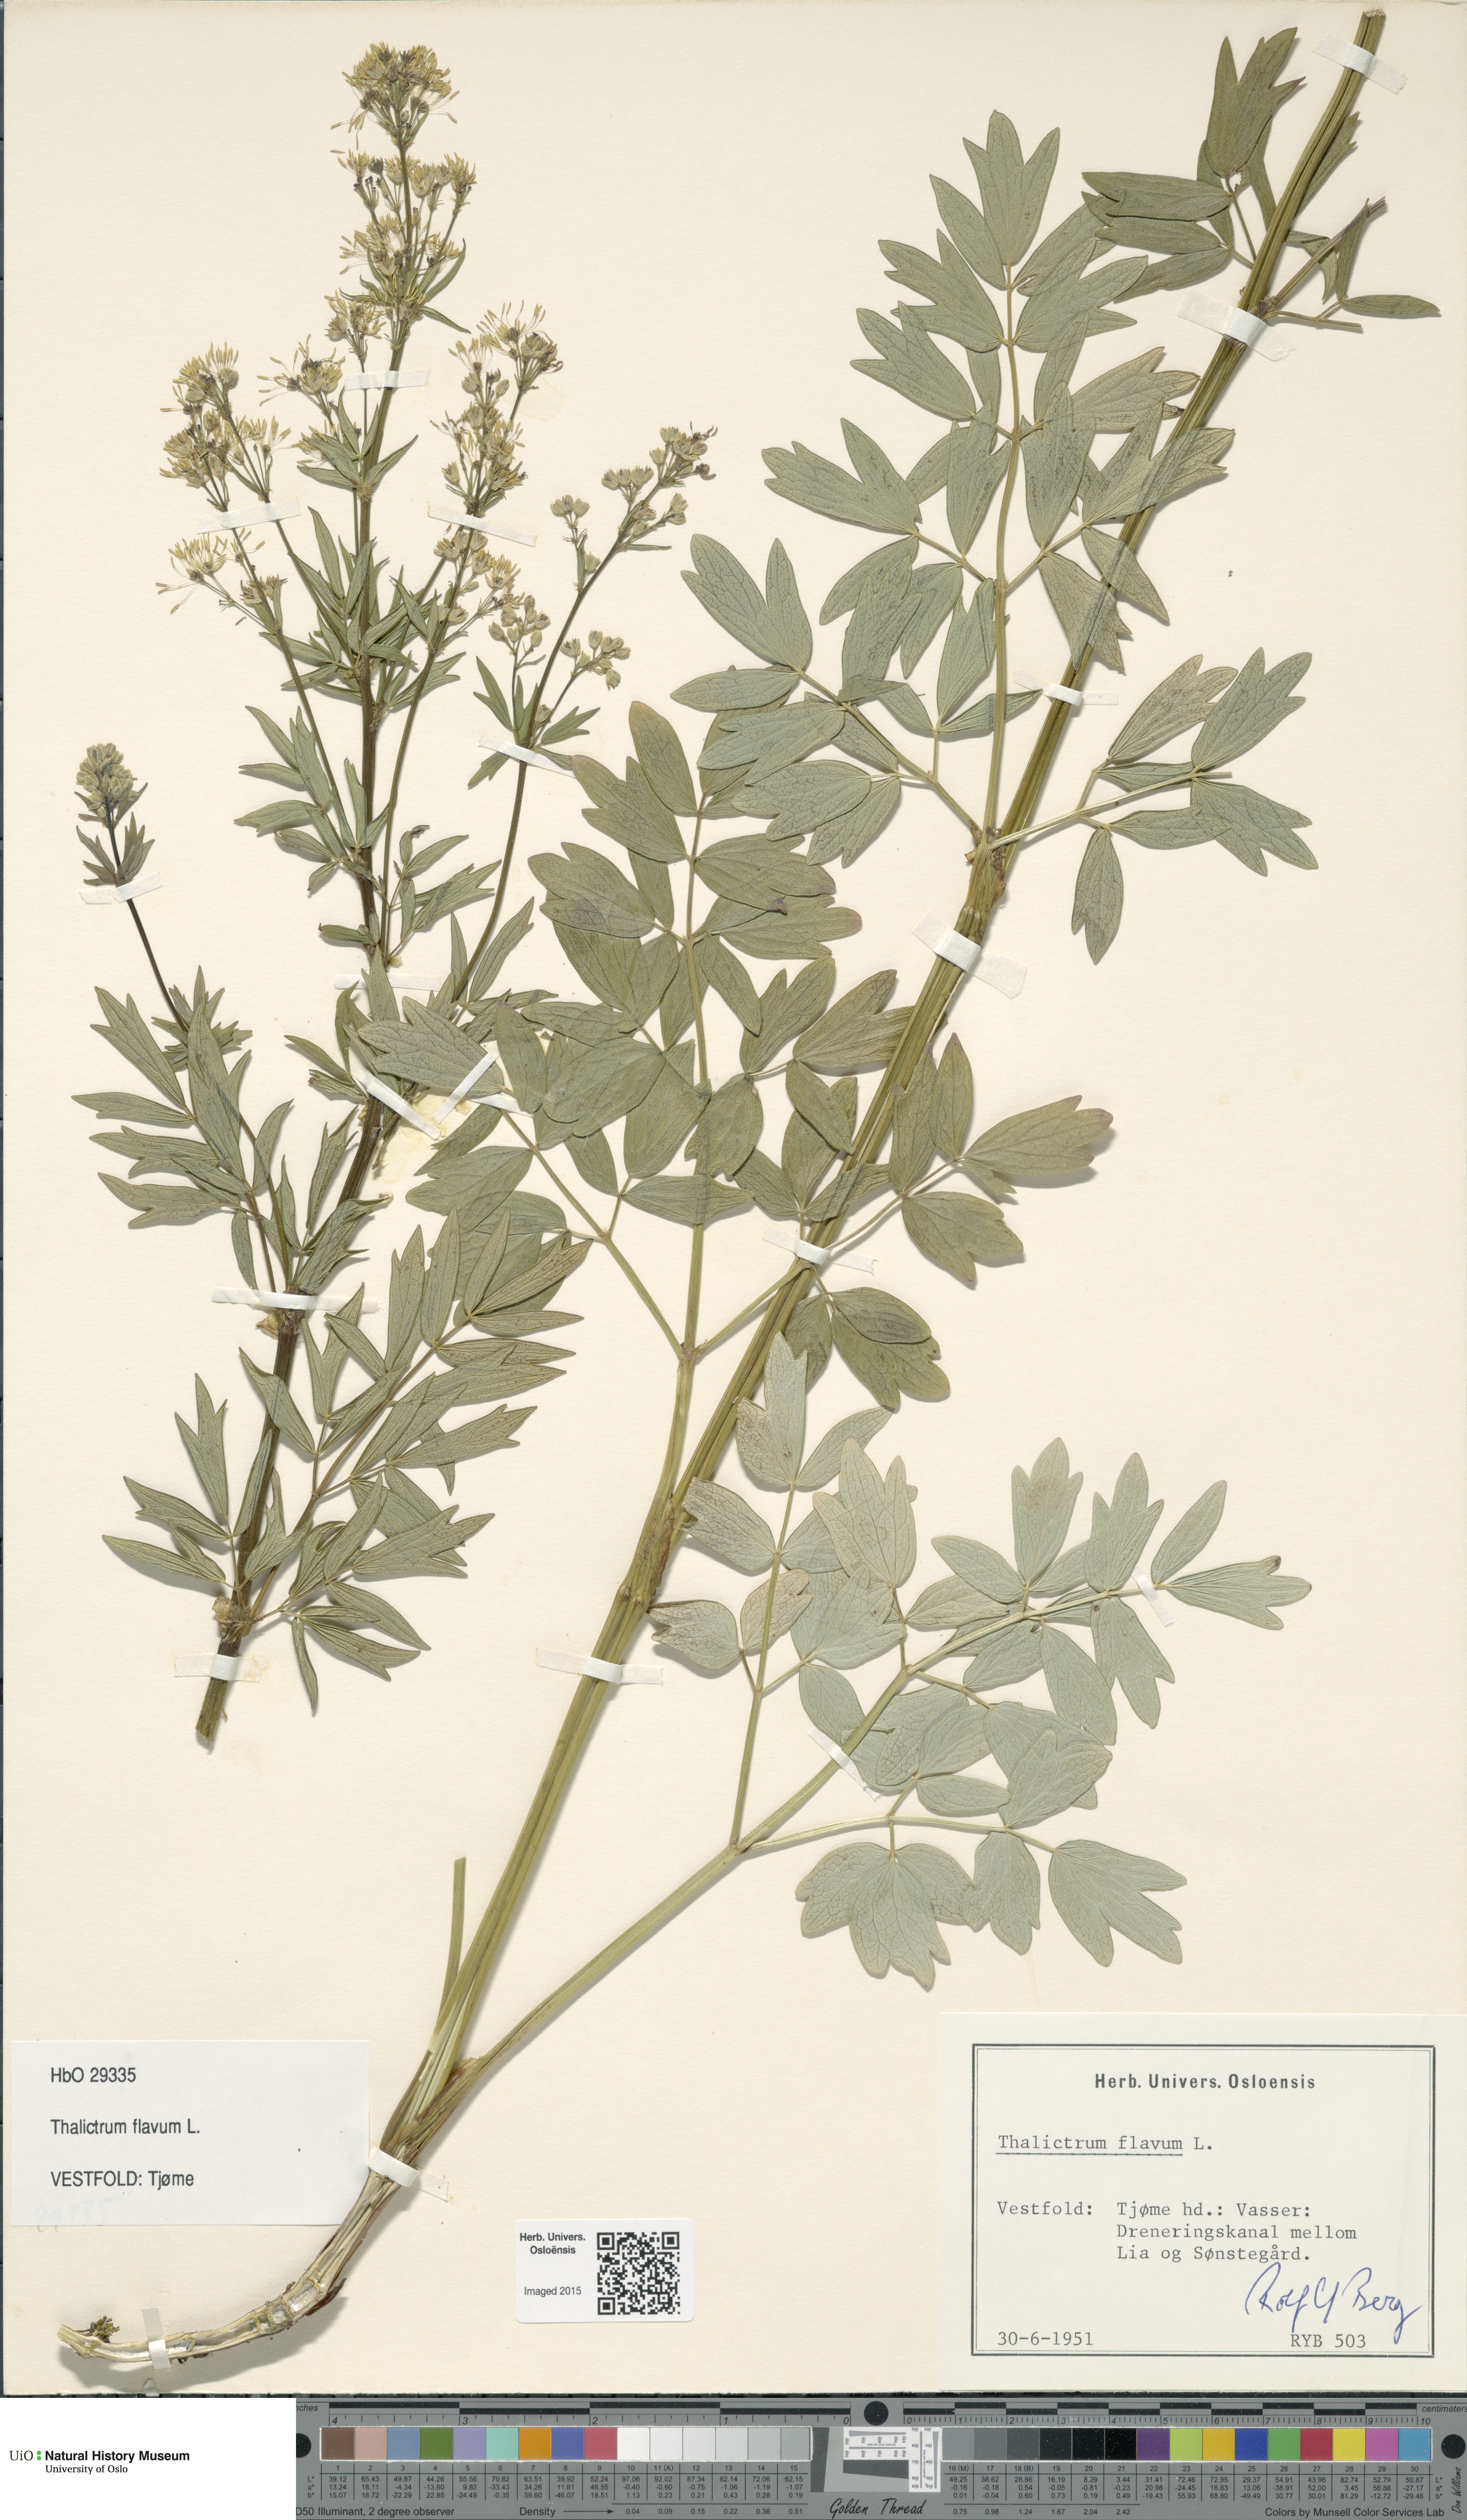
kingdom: Plantae
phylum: Tracheophyta
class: Magnoliopsida
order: Ranunculales
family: Ranunculaceae
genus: Thalictrum
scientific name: Thalictrum flavum
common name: Common meadow-rue
